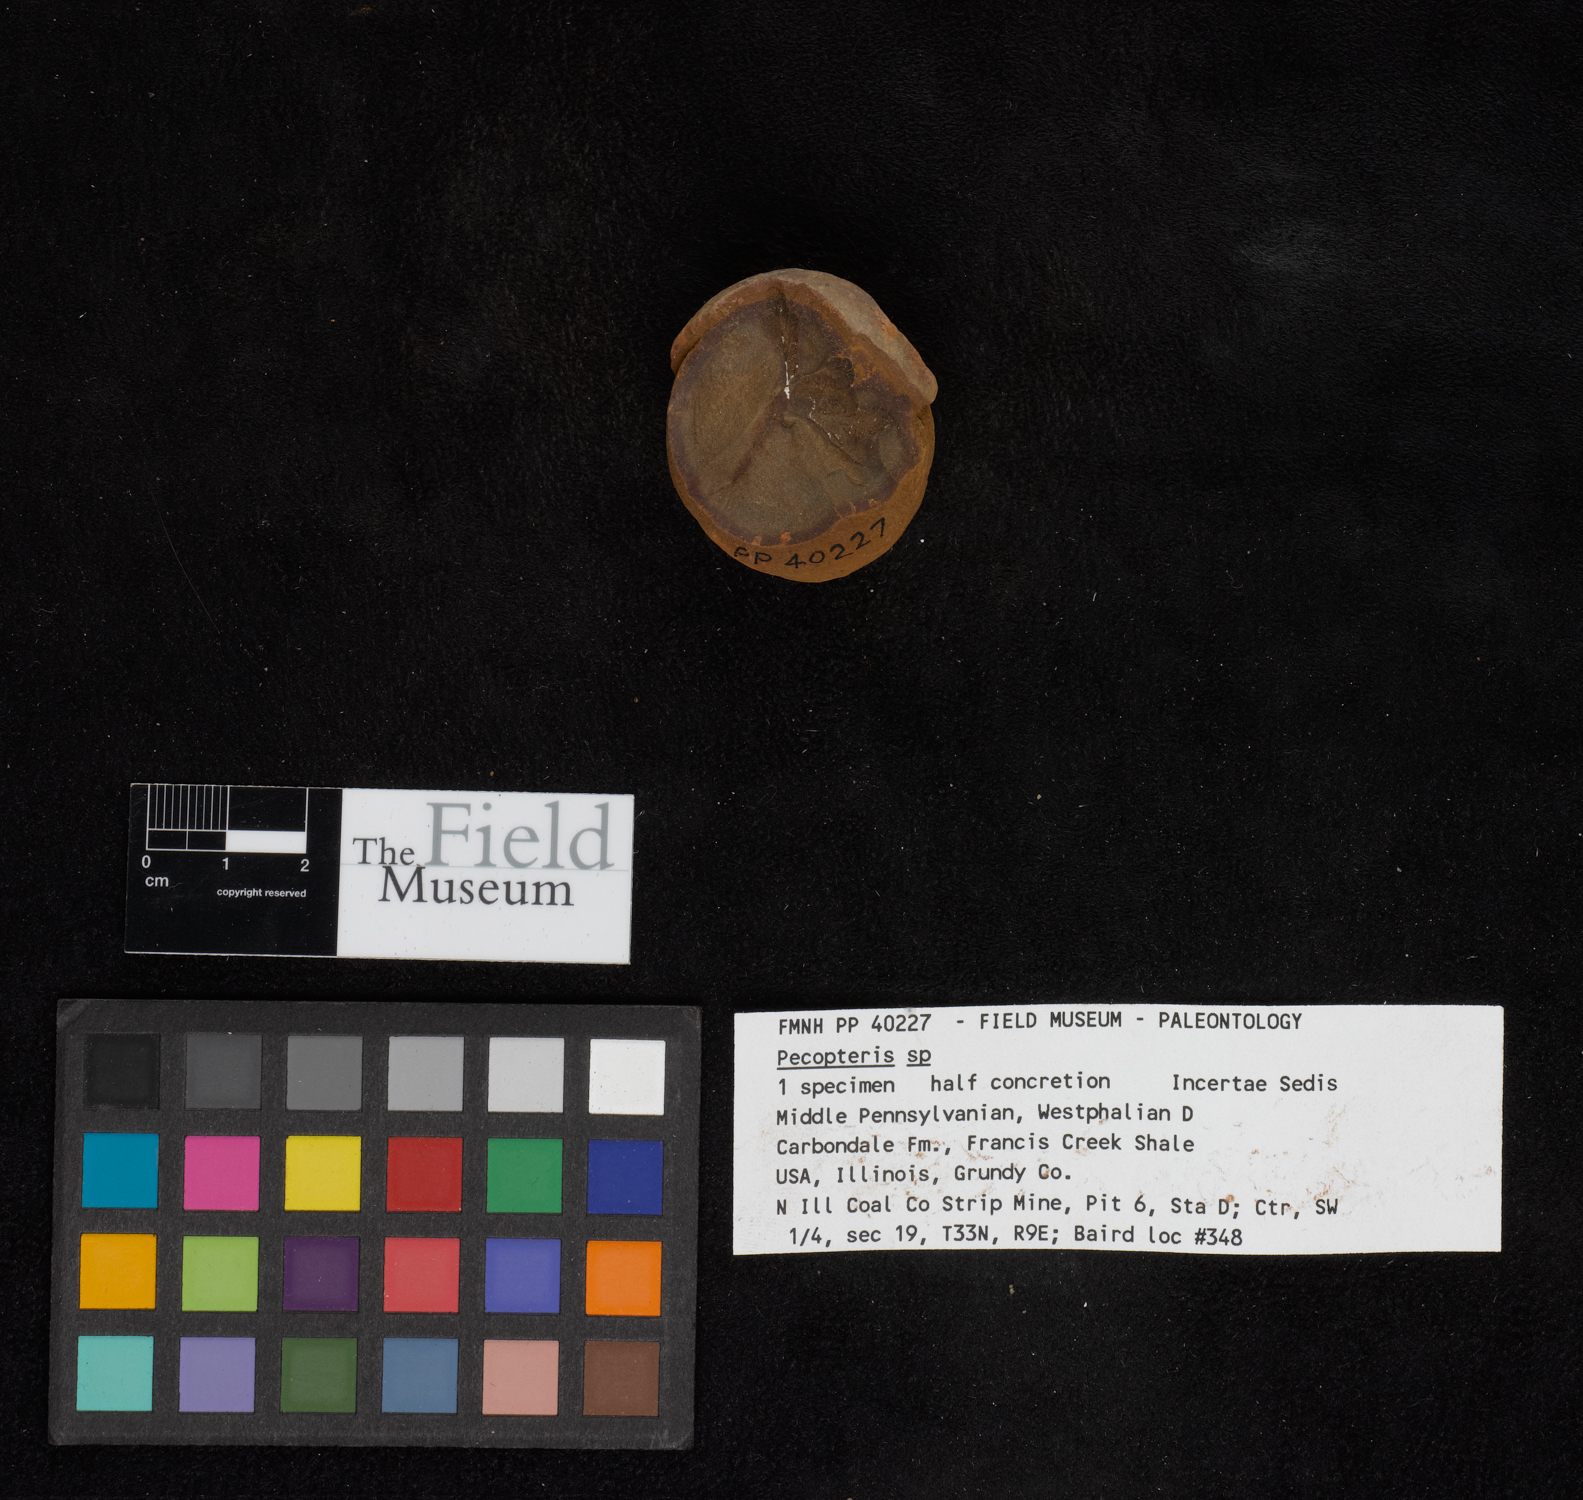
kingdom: Plantae
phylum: Tracheophyta
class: Polypodiopsida
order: Marattiales
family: Asterothecaceae
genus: Pecopteris
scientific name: Pecopteris
